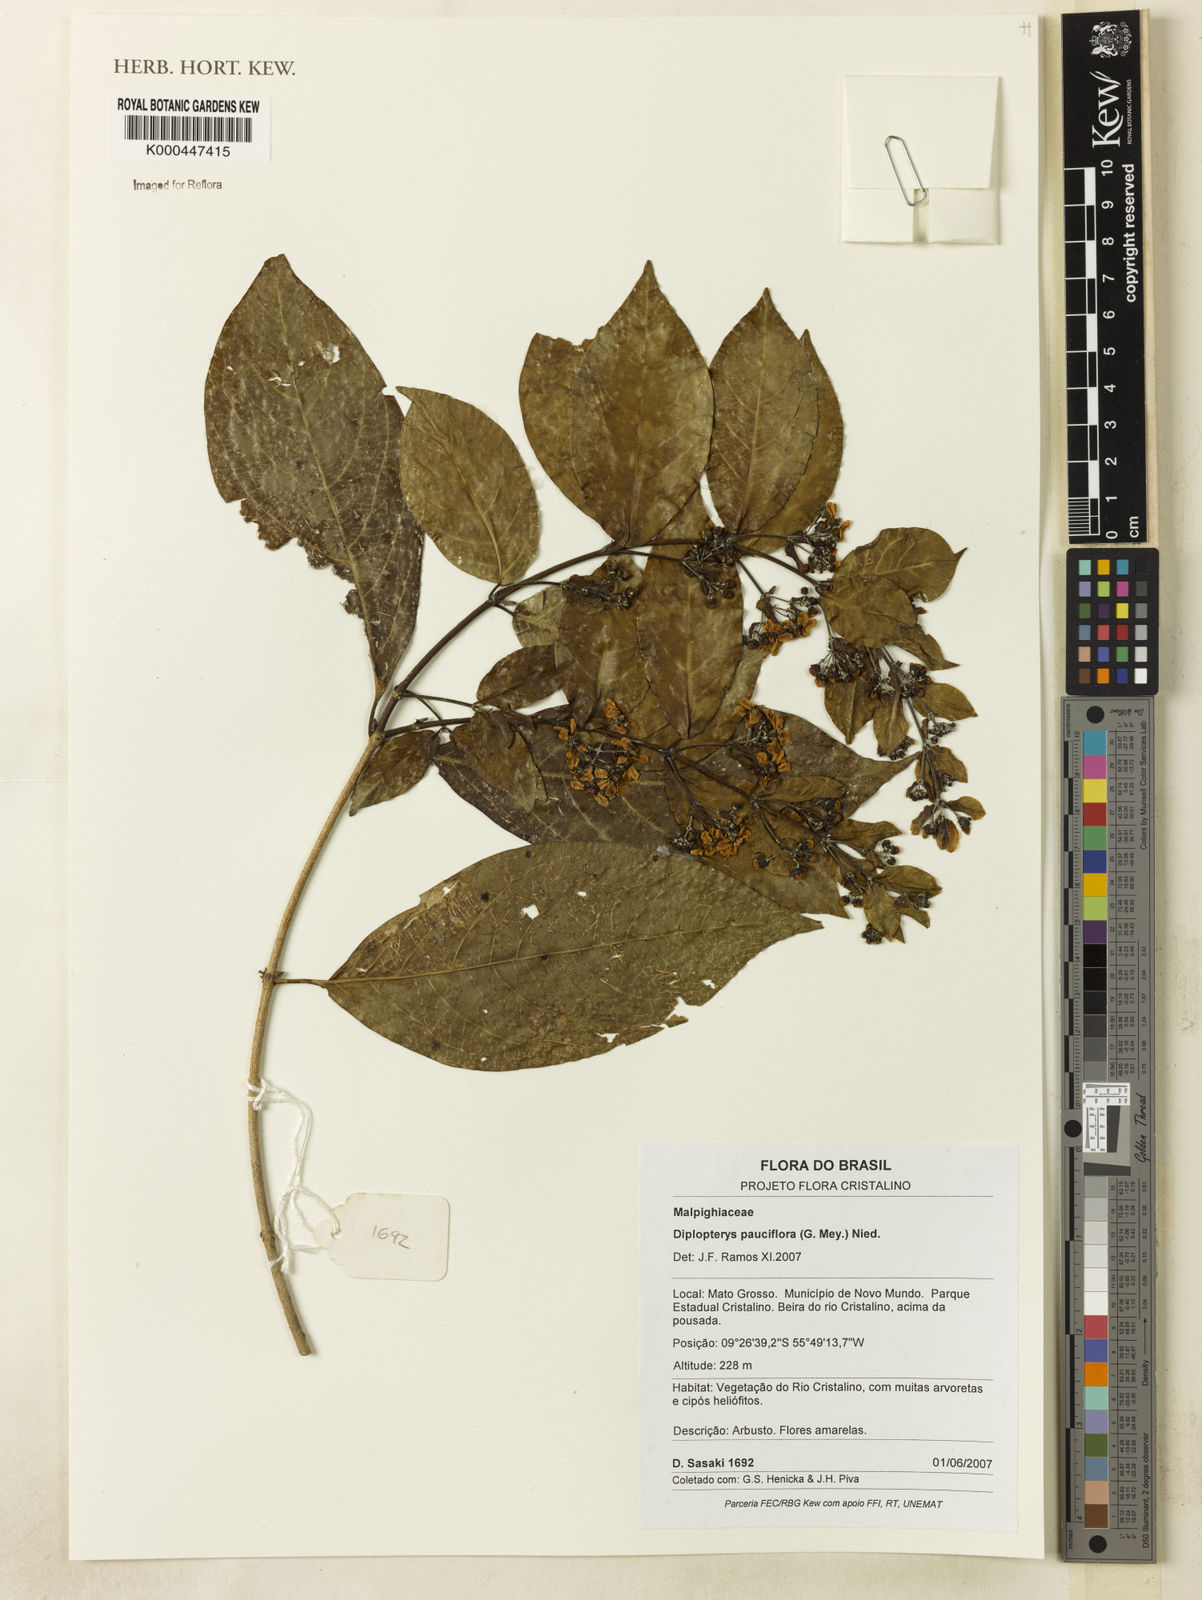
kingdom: Plantae
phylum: Tracheophyta
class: Magnoliopsida
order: Malpighiales
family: Malpighiaceae
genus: Diplopterys
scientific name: Diplopterys pauciflora
